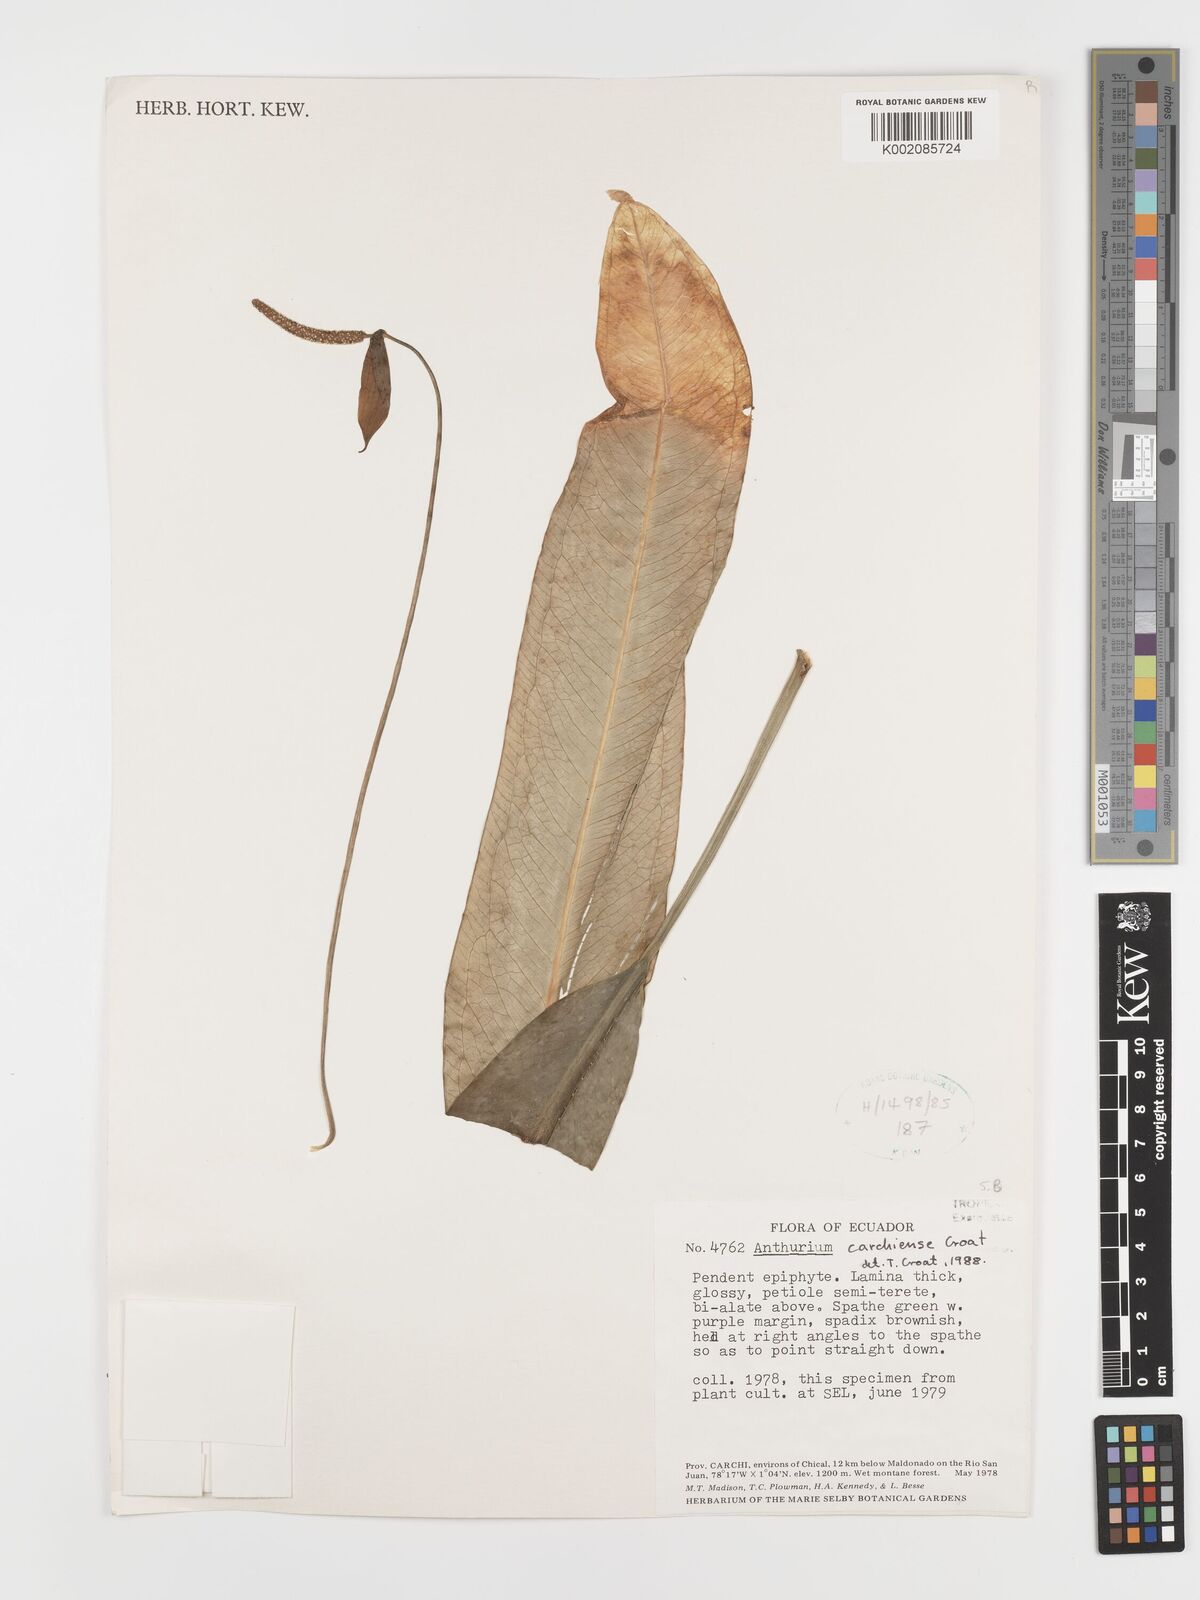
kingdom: Plantae
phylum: Tracheophyta
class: Liliopsida
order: Alismatales
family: Araceae
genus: Anthurium
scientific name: Anthurium carchiense
